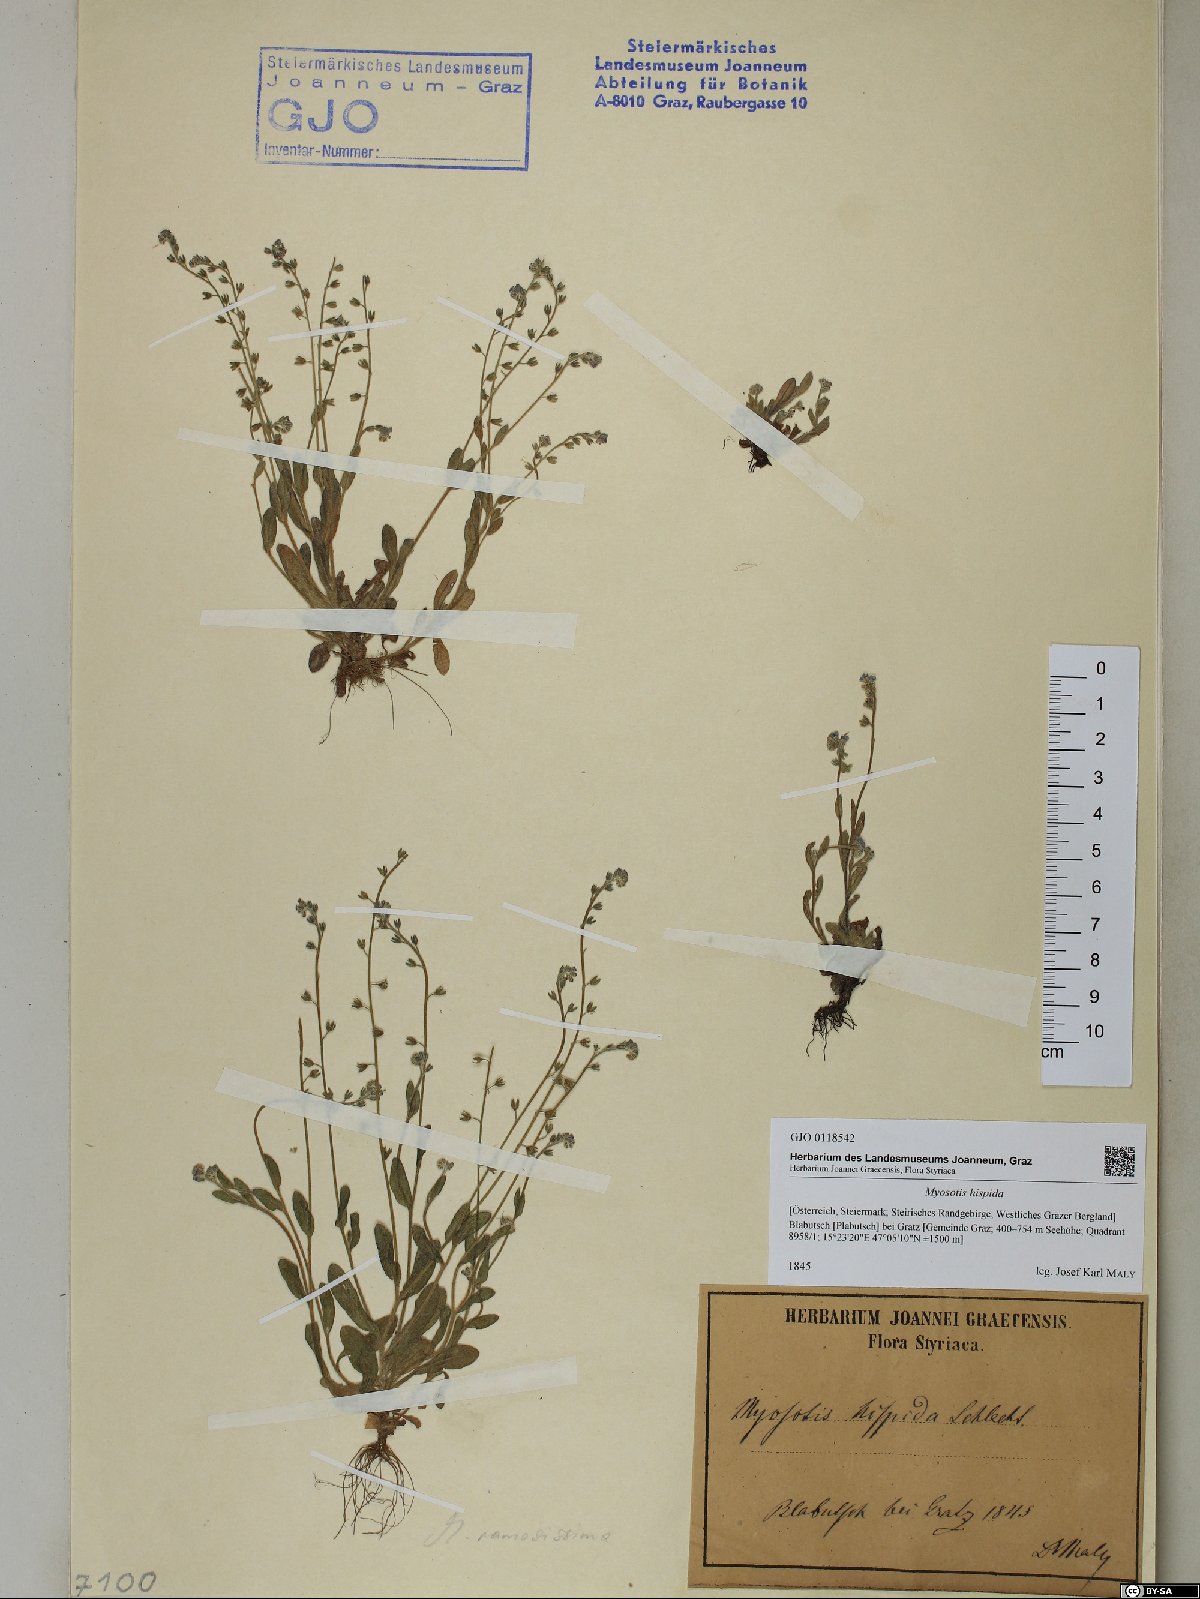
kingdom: Plantae
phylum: Tracheophyta
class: Magnoliopsida
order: Boraginales
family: Boraginaceae
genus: Myosotis
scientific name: Myosotis ramosissima
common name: Early forget-me-not
